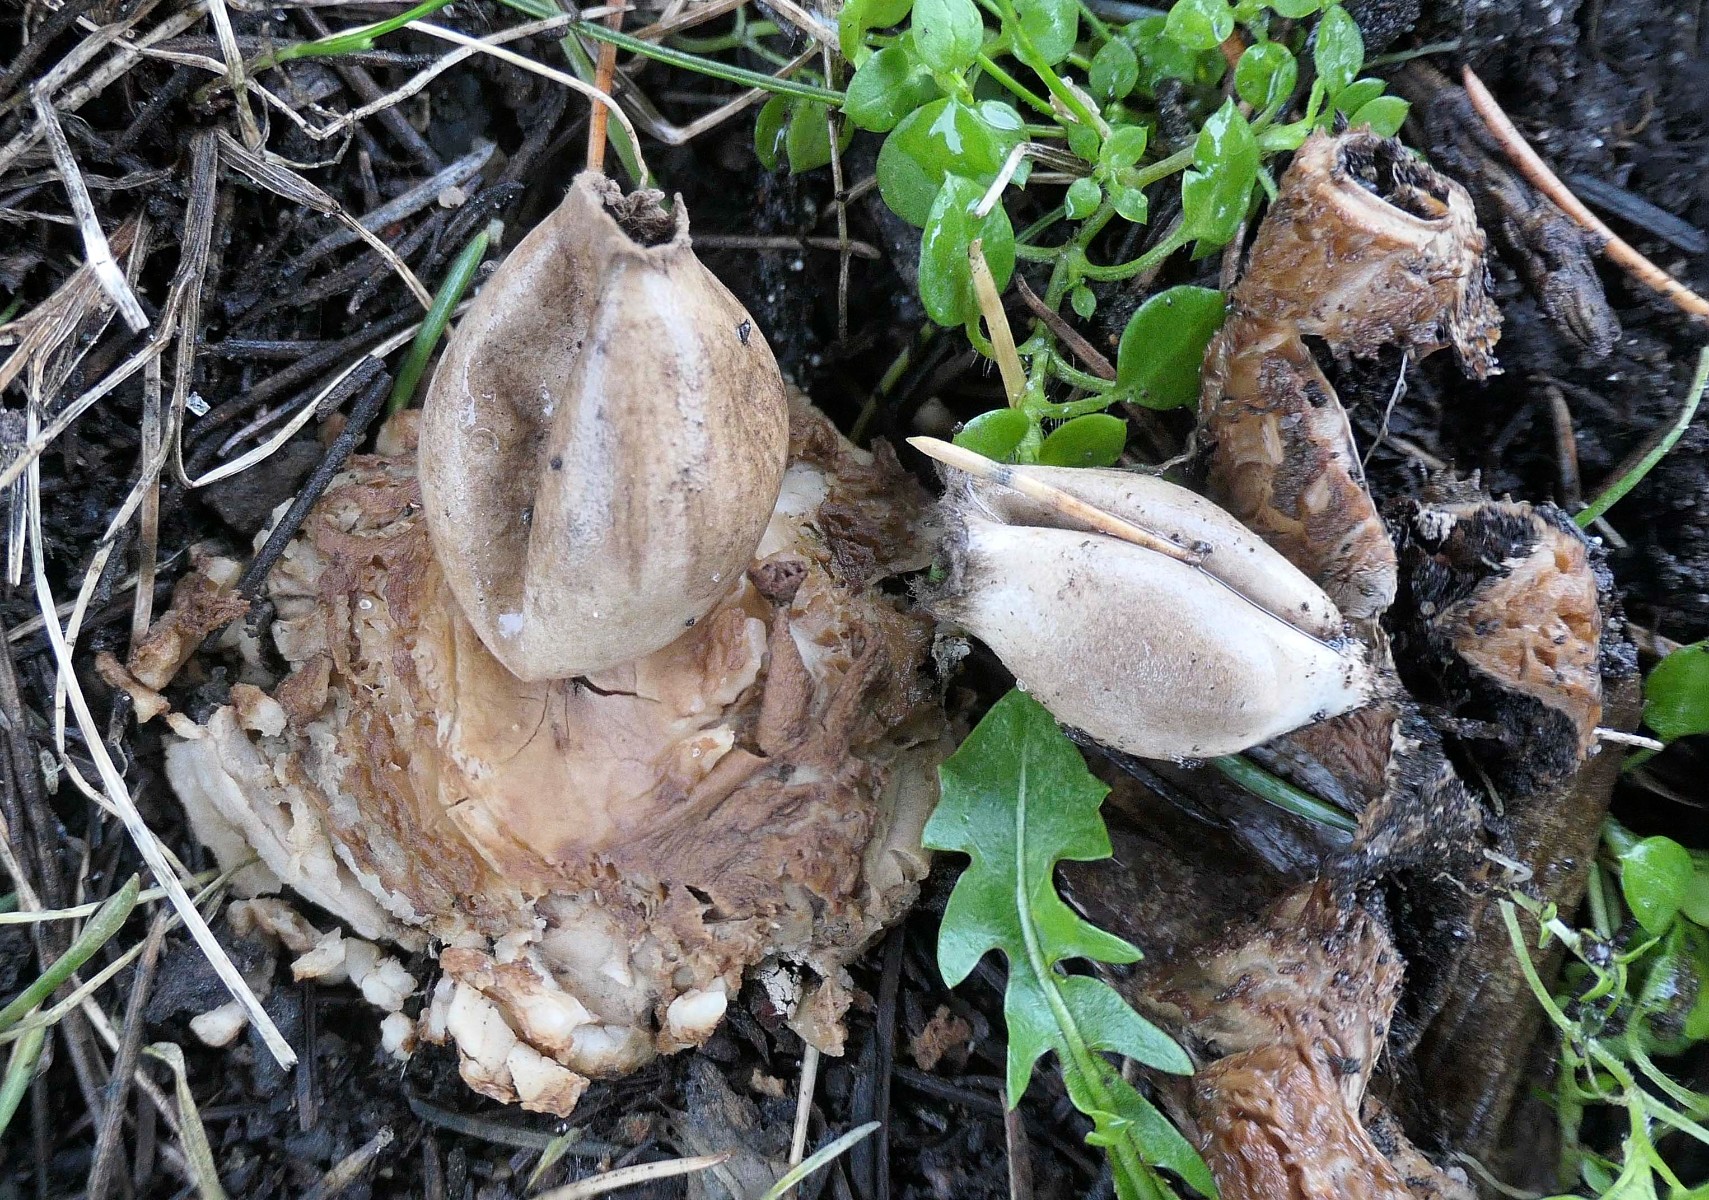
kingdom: Fungi
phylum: Basidiomycota
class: Agaricomycetes
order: Geastrales
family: Geastraceae
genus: Geastrum
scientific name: Geastrum fimbriatum
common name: frynset stjernebold
